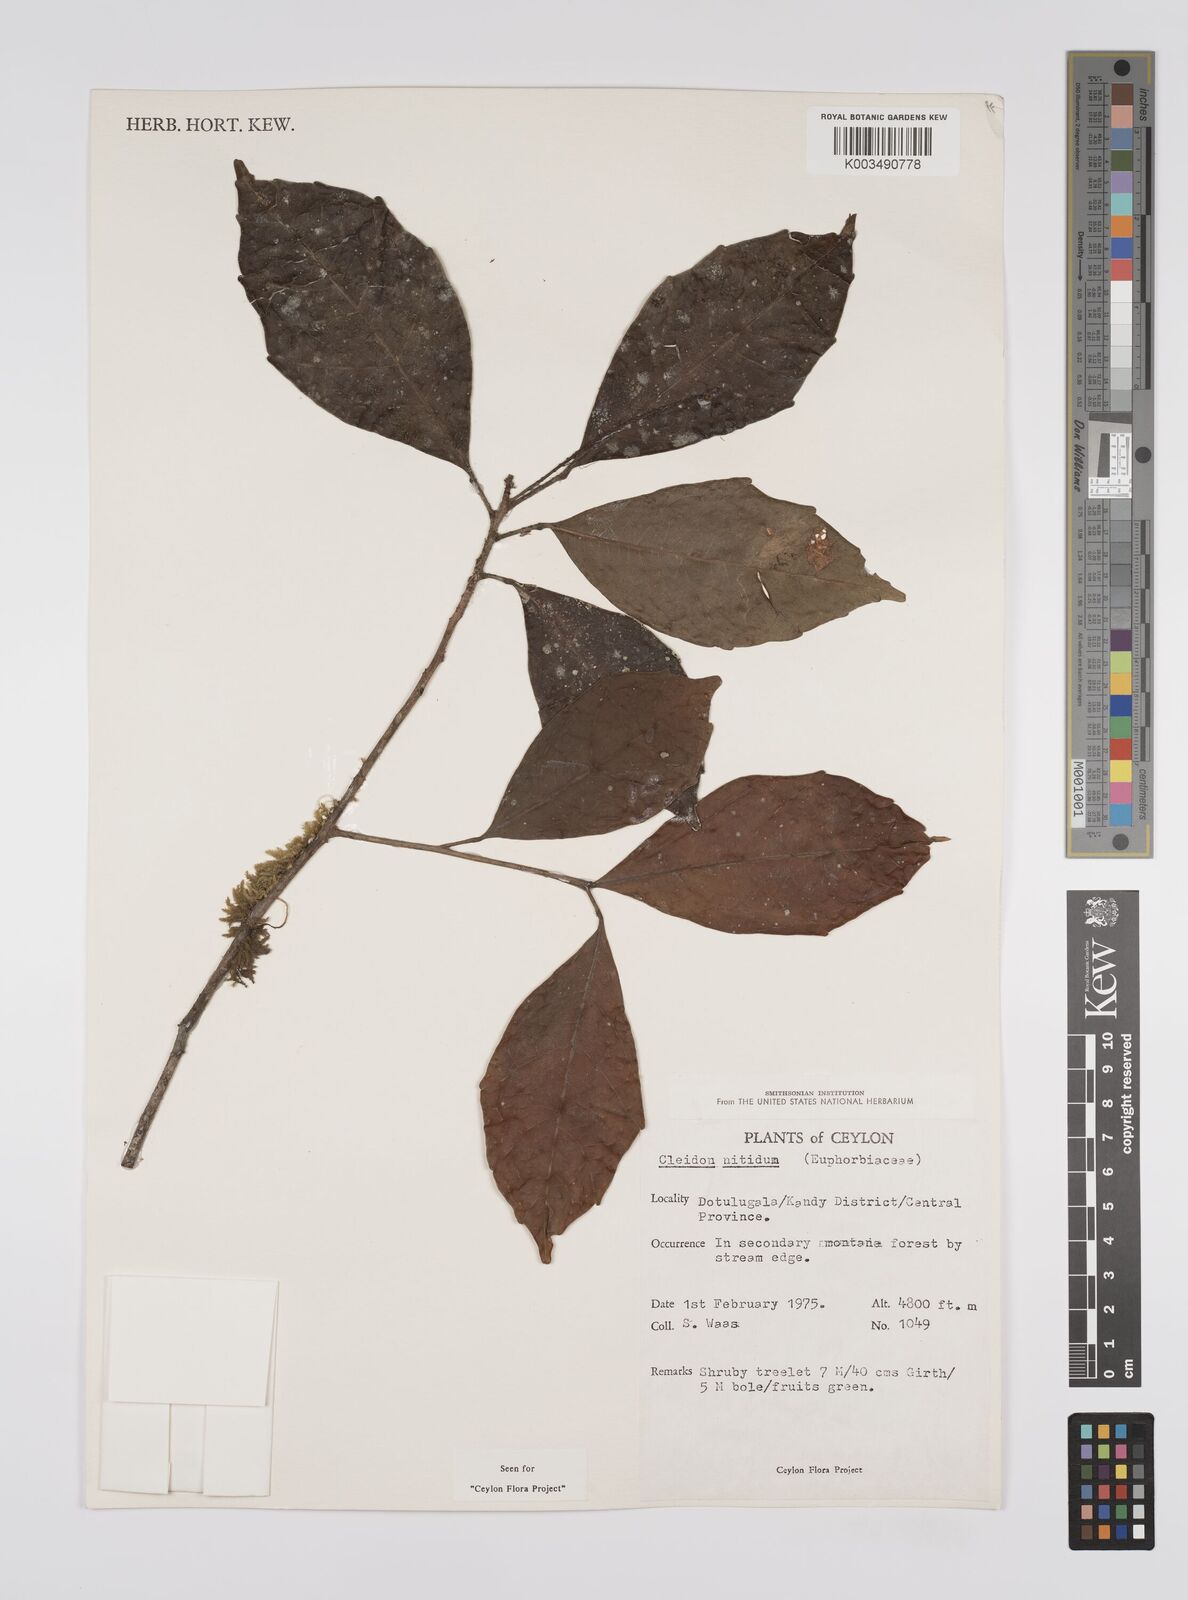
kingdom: Plantae
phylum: Tracheophyta
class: Magnoliopsida
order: Malpighiales
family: Euphorbiaceae
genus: Cleidion
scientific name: Cleidion nitidum
